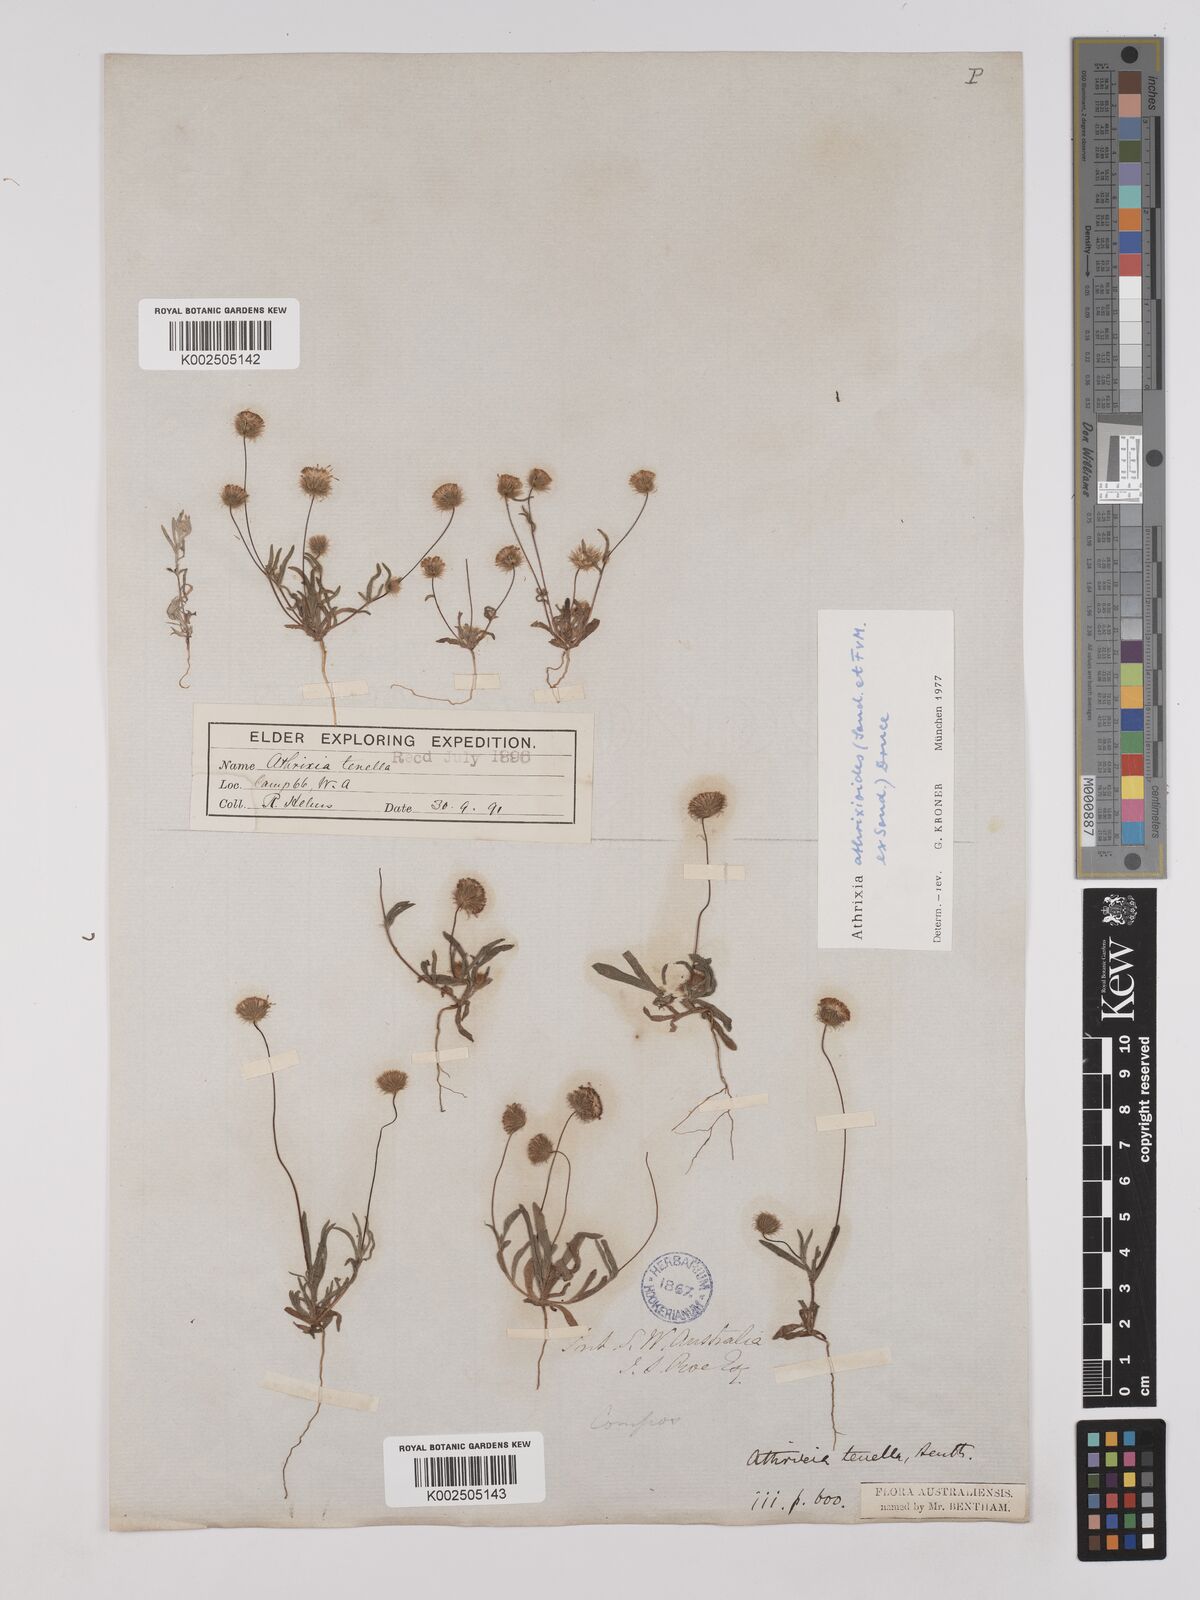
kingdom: Plantae
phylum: Tracheophyta
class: Magnoliopsida
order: Asterales
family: Asteraceae
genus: Asteridea
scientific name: Asteridea athrixioides
